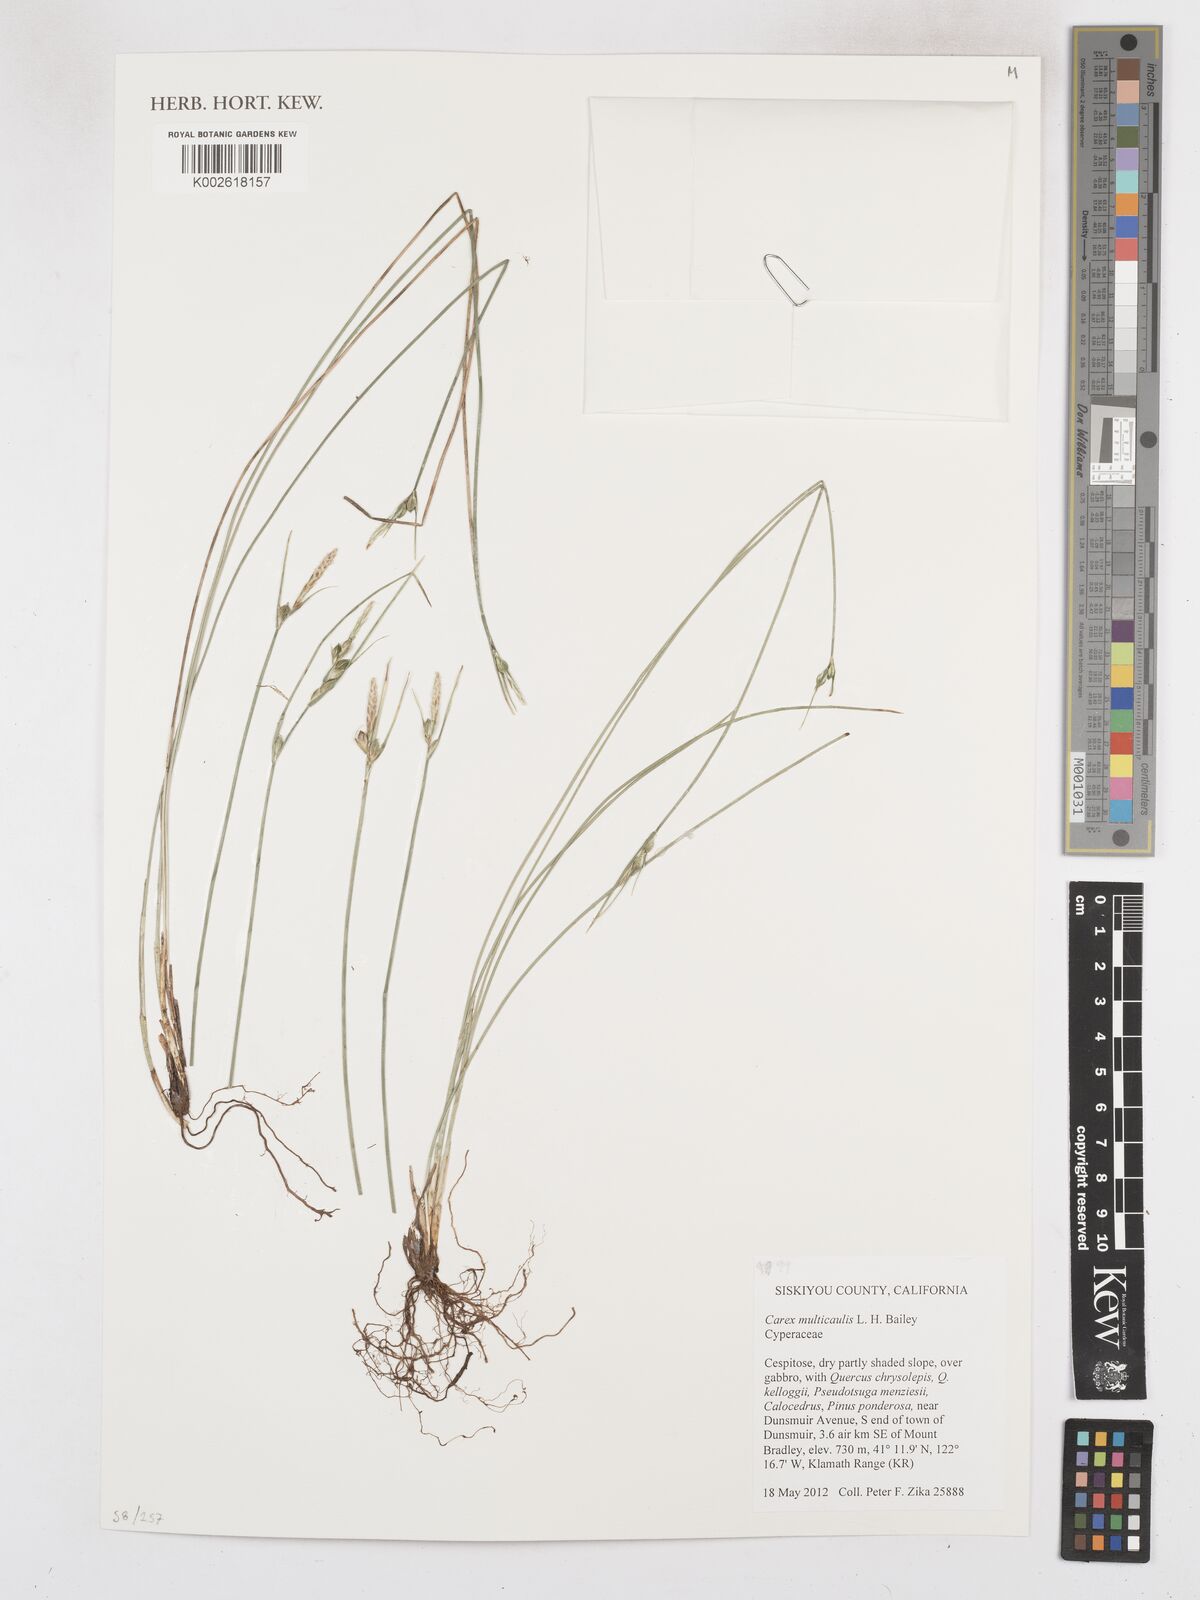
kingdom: Plantae
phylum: Tracheophyta
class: Liliopsida
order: Poales
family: Cyperaceae
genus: Carex
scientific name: Carex multicaulis
